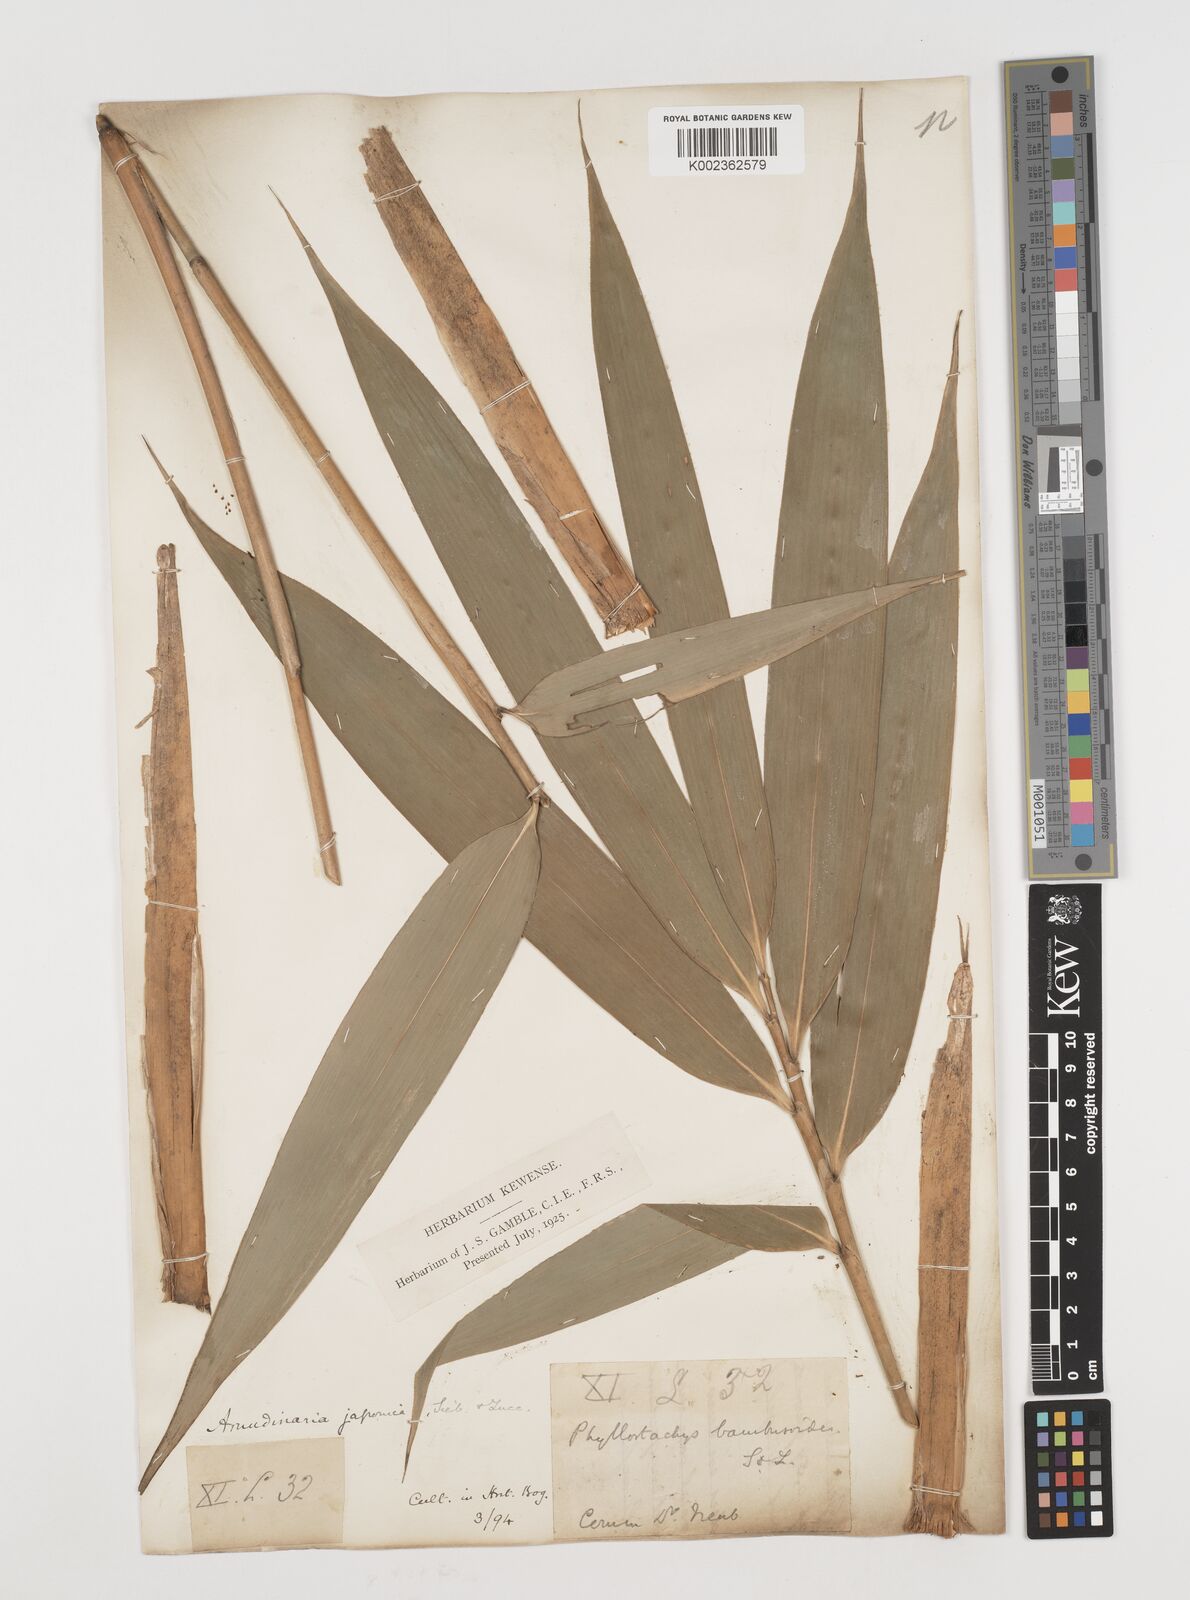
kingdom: Plantae
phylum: Tracheophyta
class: Liliopsida
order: Poales
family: Poaceae
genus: Pseudosasa
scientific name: Pseudosasa japonica
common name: Arrow bamboo
